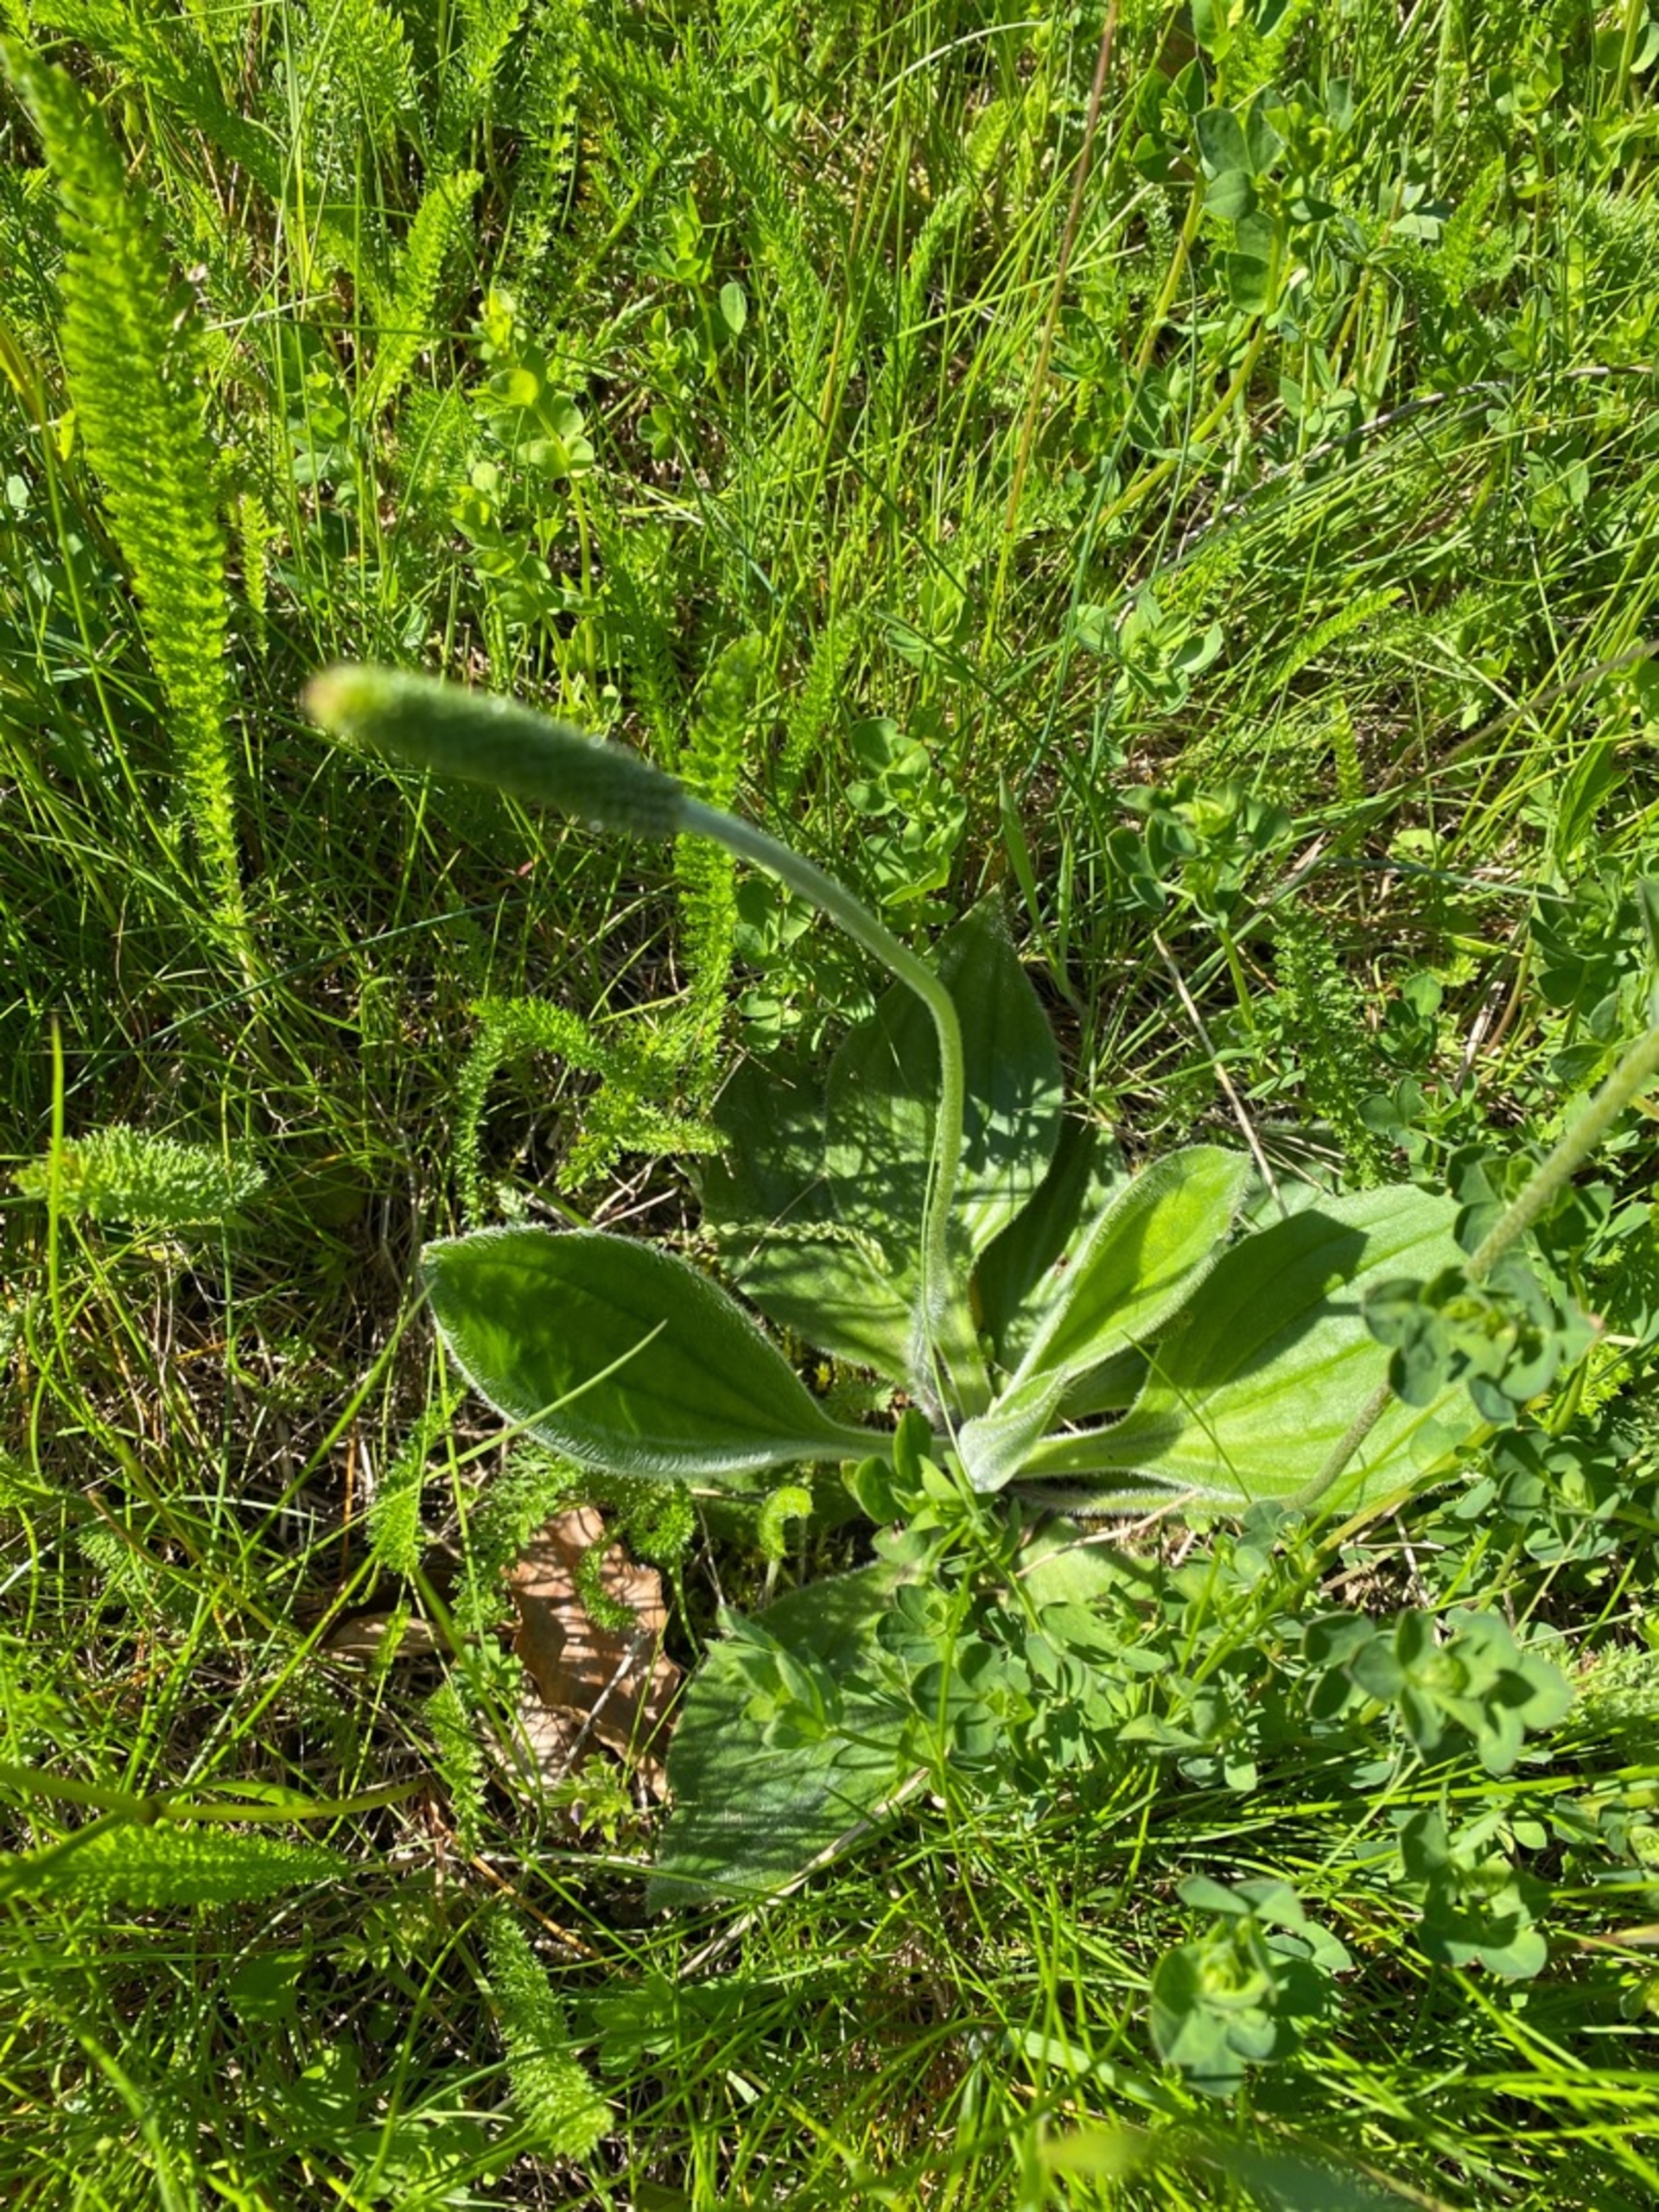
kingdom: Plantae
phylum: Tracheophyta
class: Magnoliopsida
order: Lamiales
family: Plantaginaceae
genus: Plantago
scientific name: Plantago media
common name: Dunet vejbred
